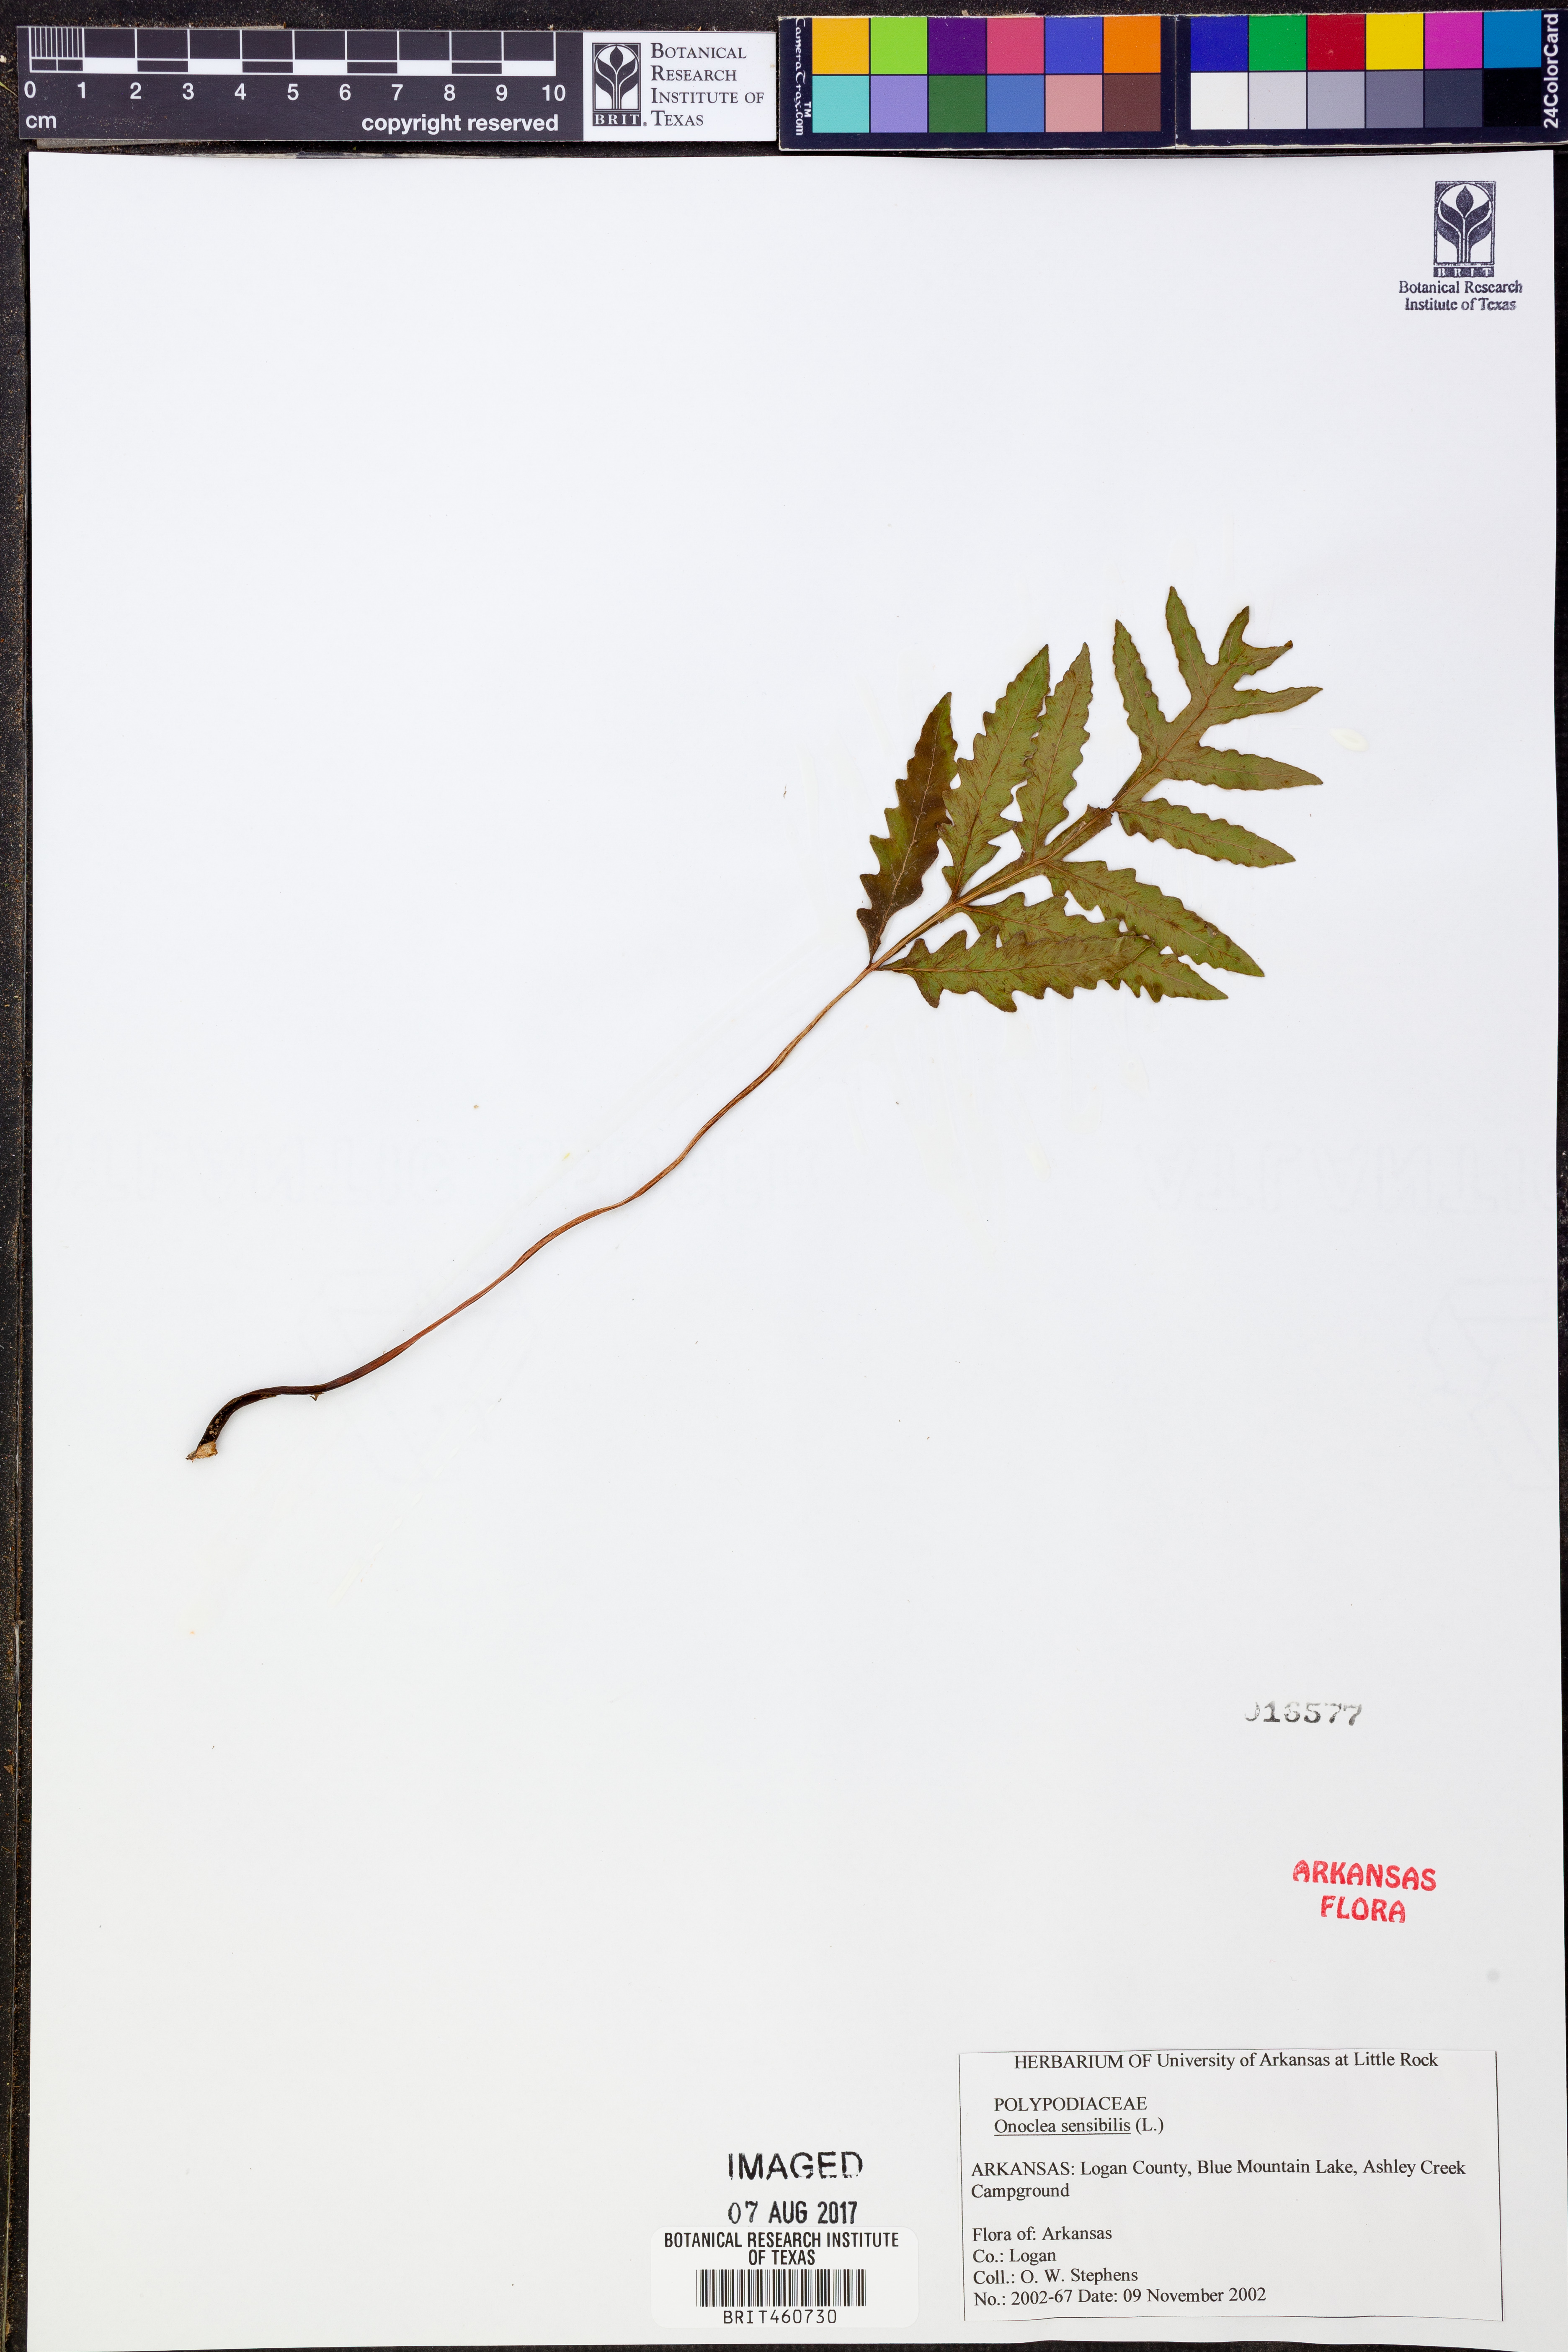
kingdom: Plantae
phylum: Tracheophyta
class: Polypodiopsida
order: Polypodiales
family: Onocleaceae
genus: Onoclea
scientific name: Onoclea sensibilis
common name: Sensitive fern
